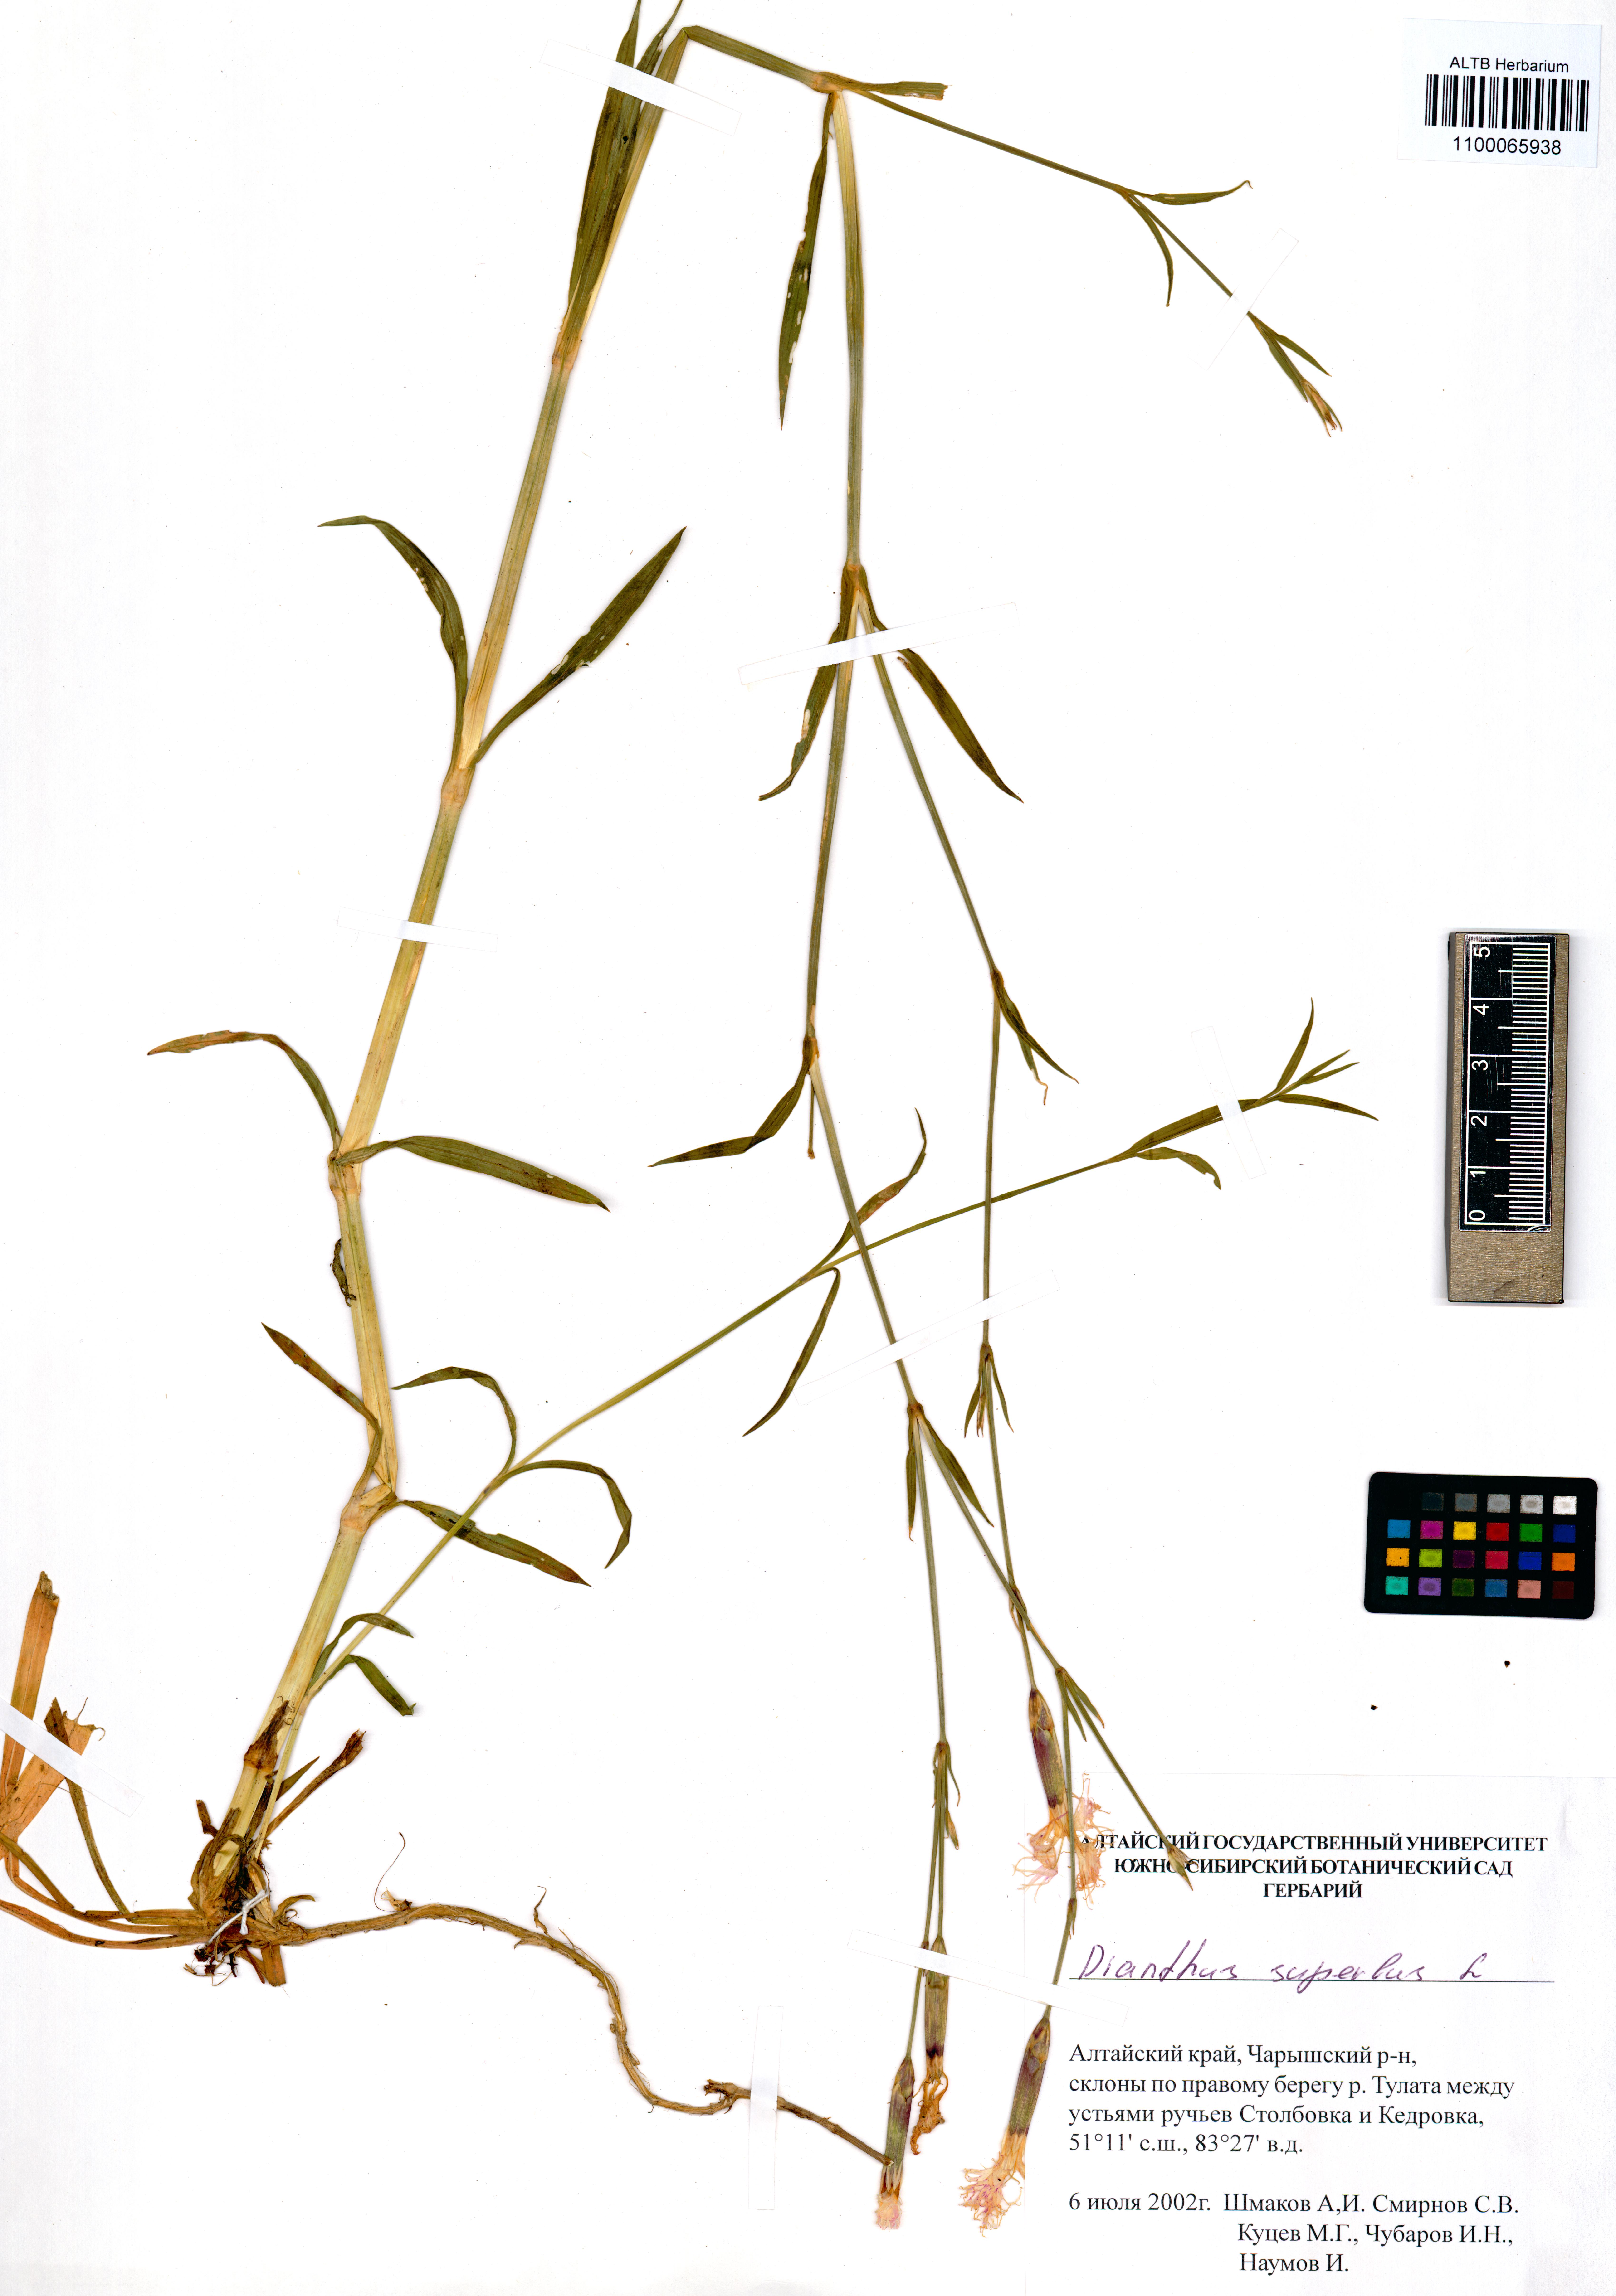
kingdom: Plantae
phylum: Tracheophyta
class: Magnoliopsida
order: Caryophyllales
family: Caryophyllaceae
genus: Dianthus
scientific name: Dianthus superbus
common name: Fringed pink
